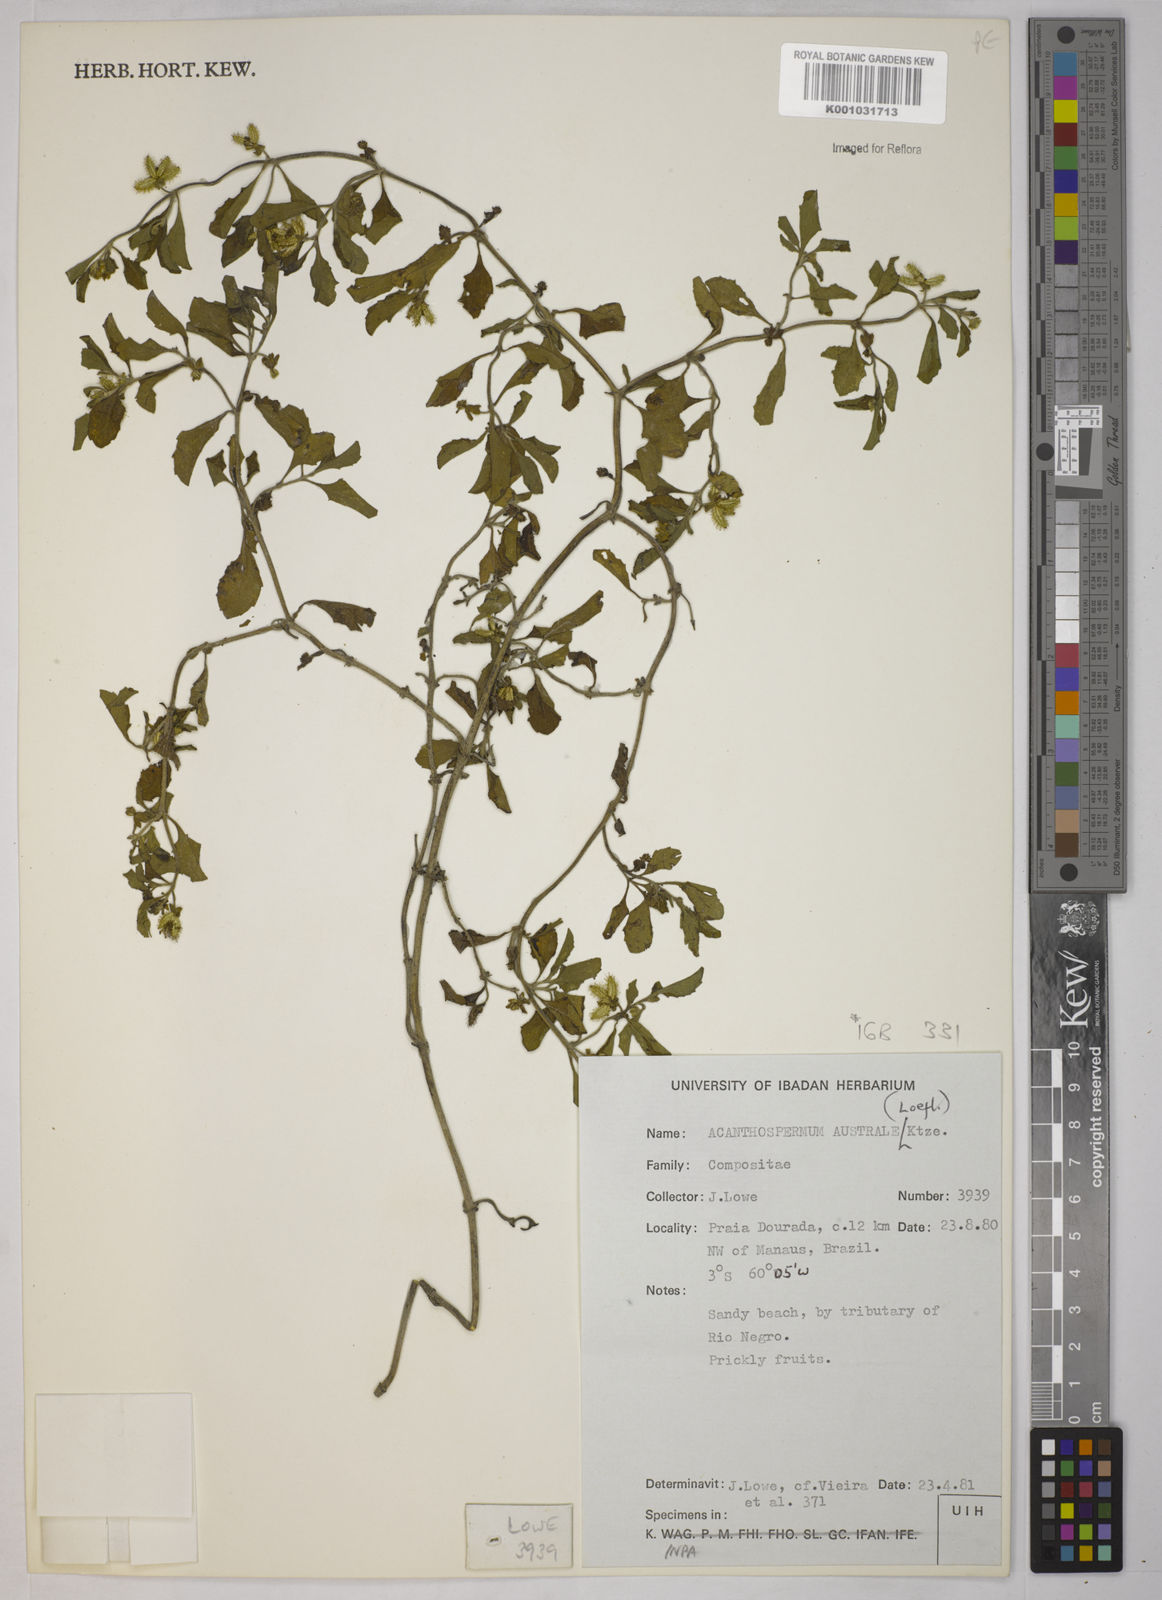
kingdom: Plantae
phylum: Tracheophyta
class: Magnoliopsida
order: Asterales
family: Asteraceae
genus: Acanthospermum
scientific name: Acanthospermum australe
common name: Paraguayan starbur
